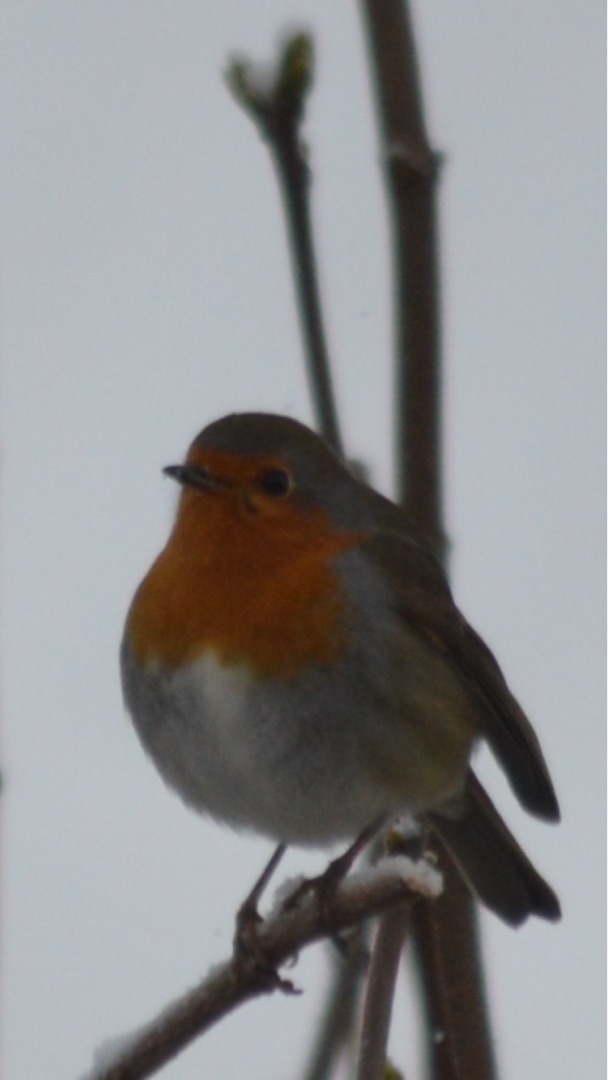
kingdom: Animalia
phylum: Chordata
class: Aves
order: Passeriformes
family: Muscicapidae
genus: Erithacus
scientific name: Erithacus rubecula
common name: Rødhals/rødkælk
